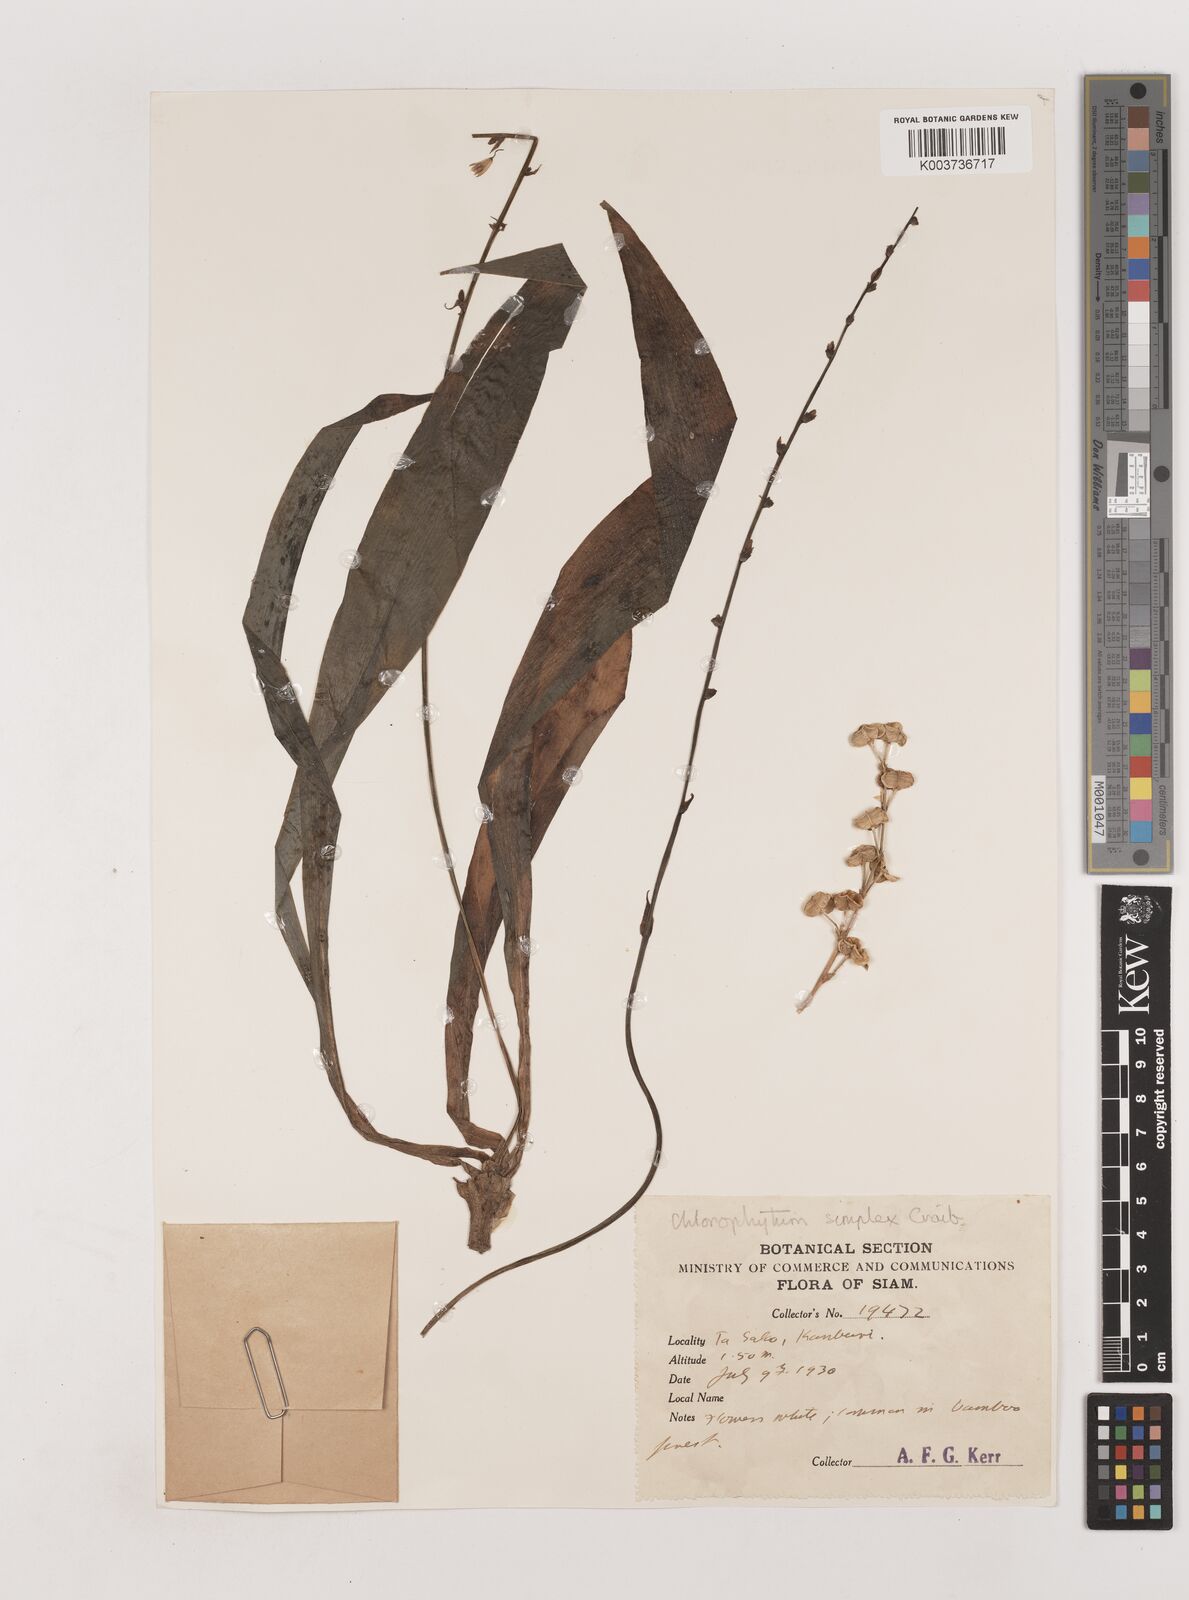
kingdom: Plantae
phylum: Tracheophyta
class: Liliopsida
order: Asparagales
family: Asparagaceae
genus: Chlorophytum
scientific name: Chlorophytum simplex
